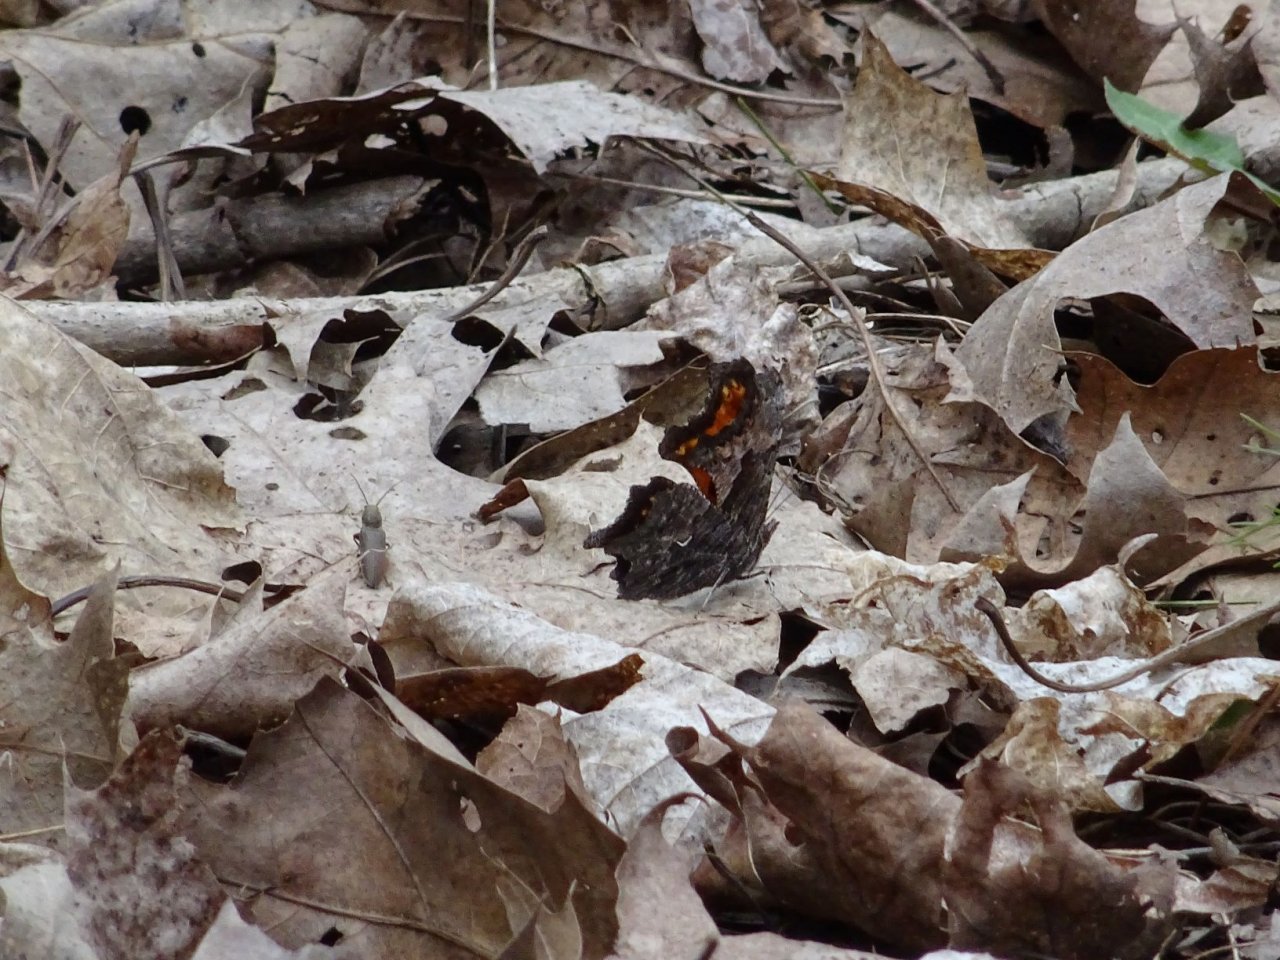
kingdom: Animalia
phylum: Arthropoda
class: Insecta
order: Lepidoptera
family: Nymphalidae
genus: Polygonia
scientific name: Polygonia progne
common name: Gray Comma
